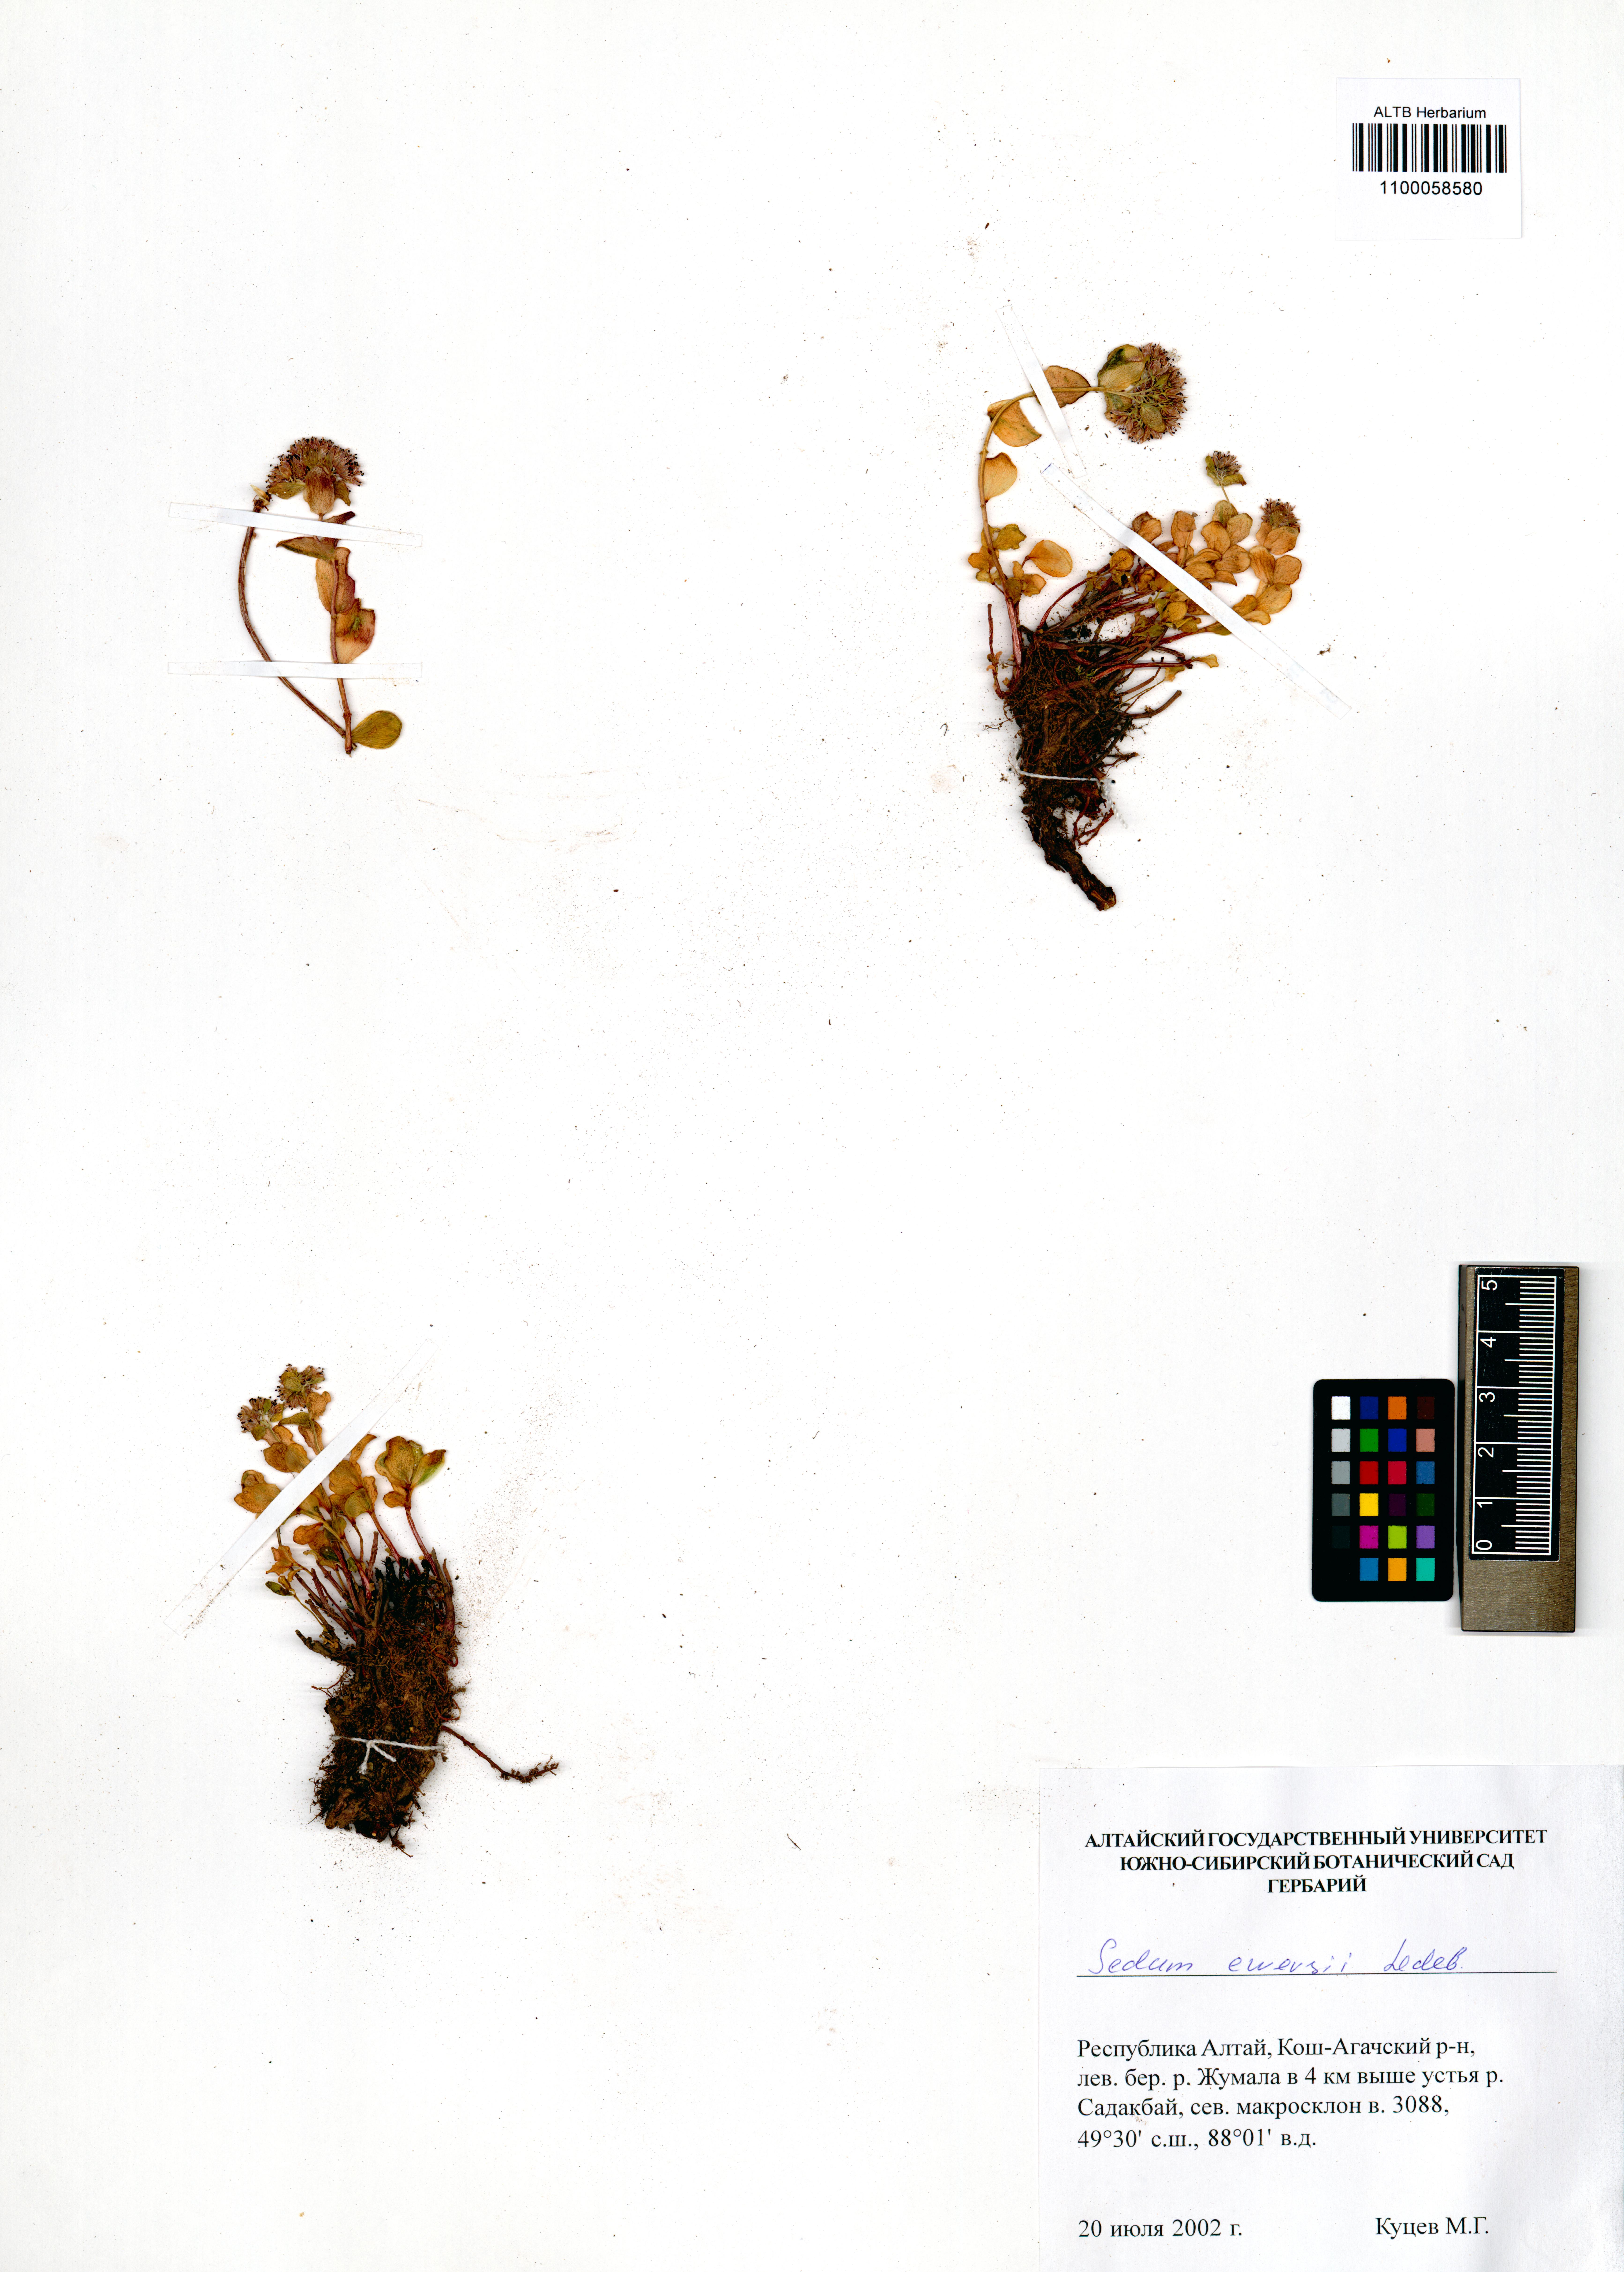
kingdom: Plantae
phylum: Tracheophyta
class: Magnoliopsida
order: Saxifragales
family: Crassulaceae
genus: Hylotelephium
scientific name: Hylotelephium ewersii
